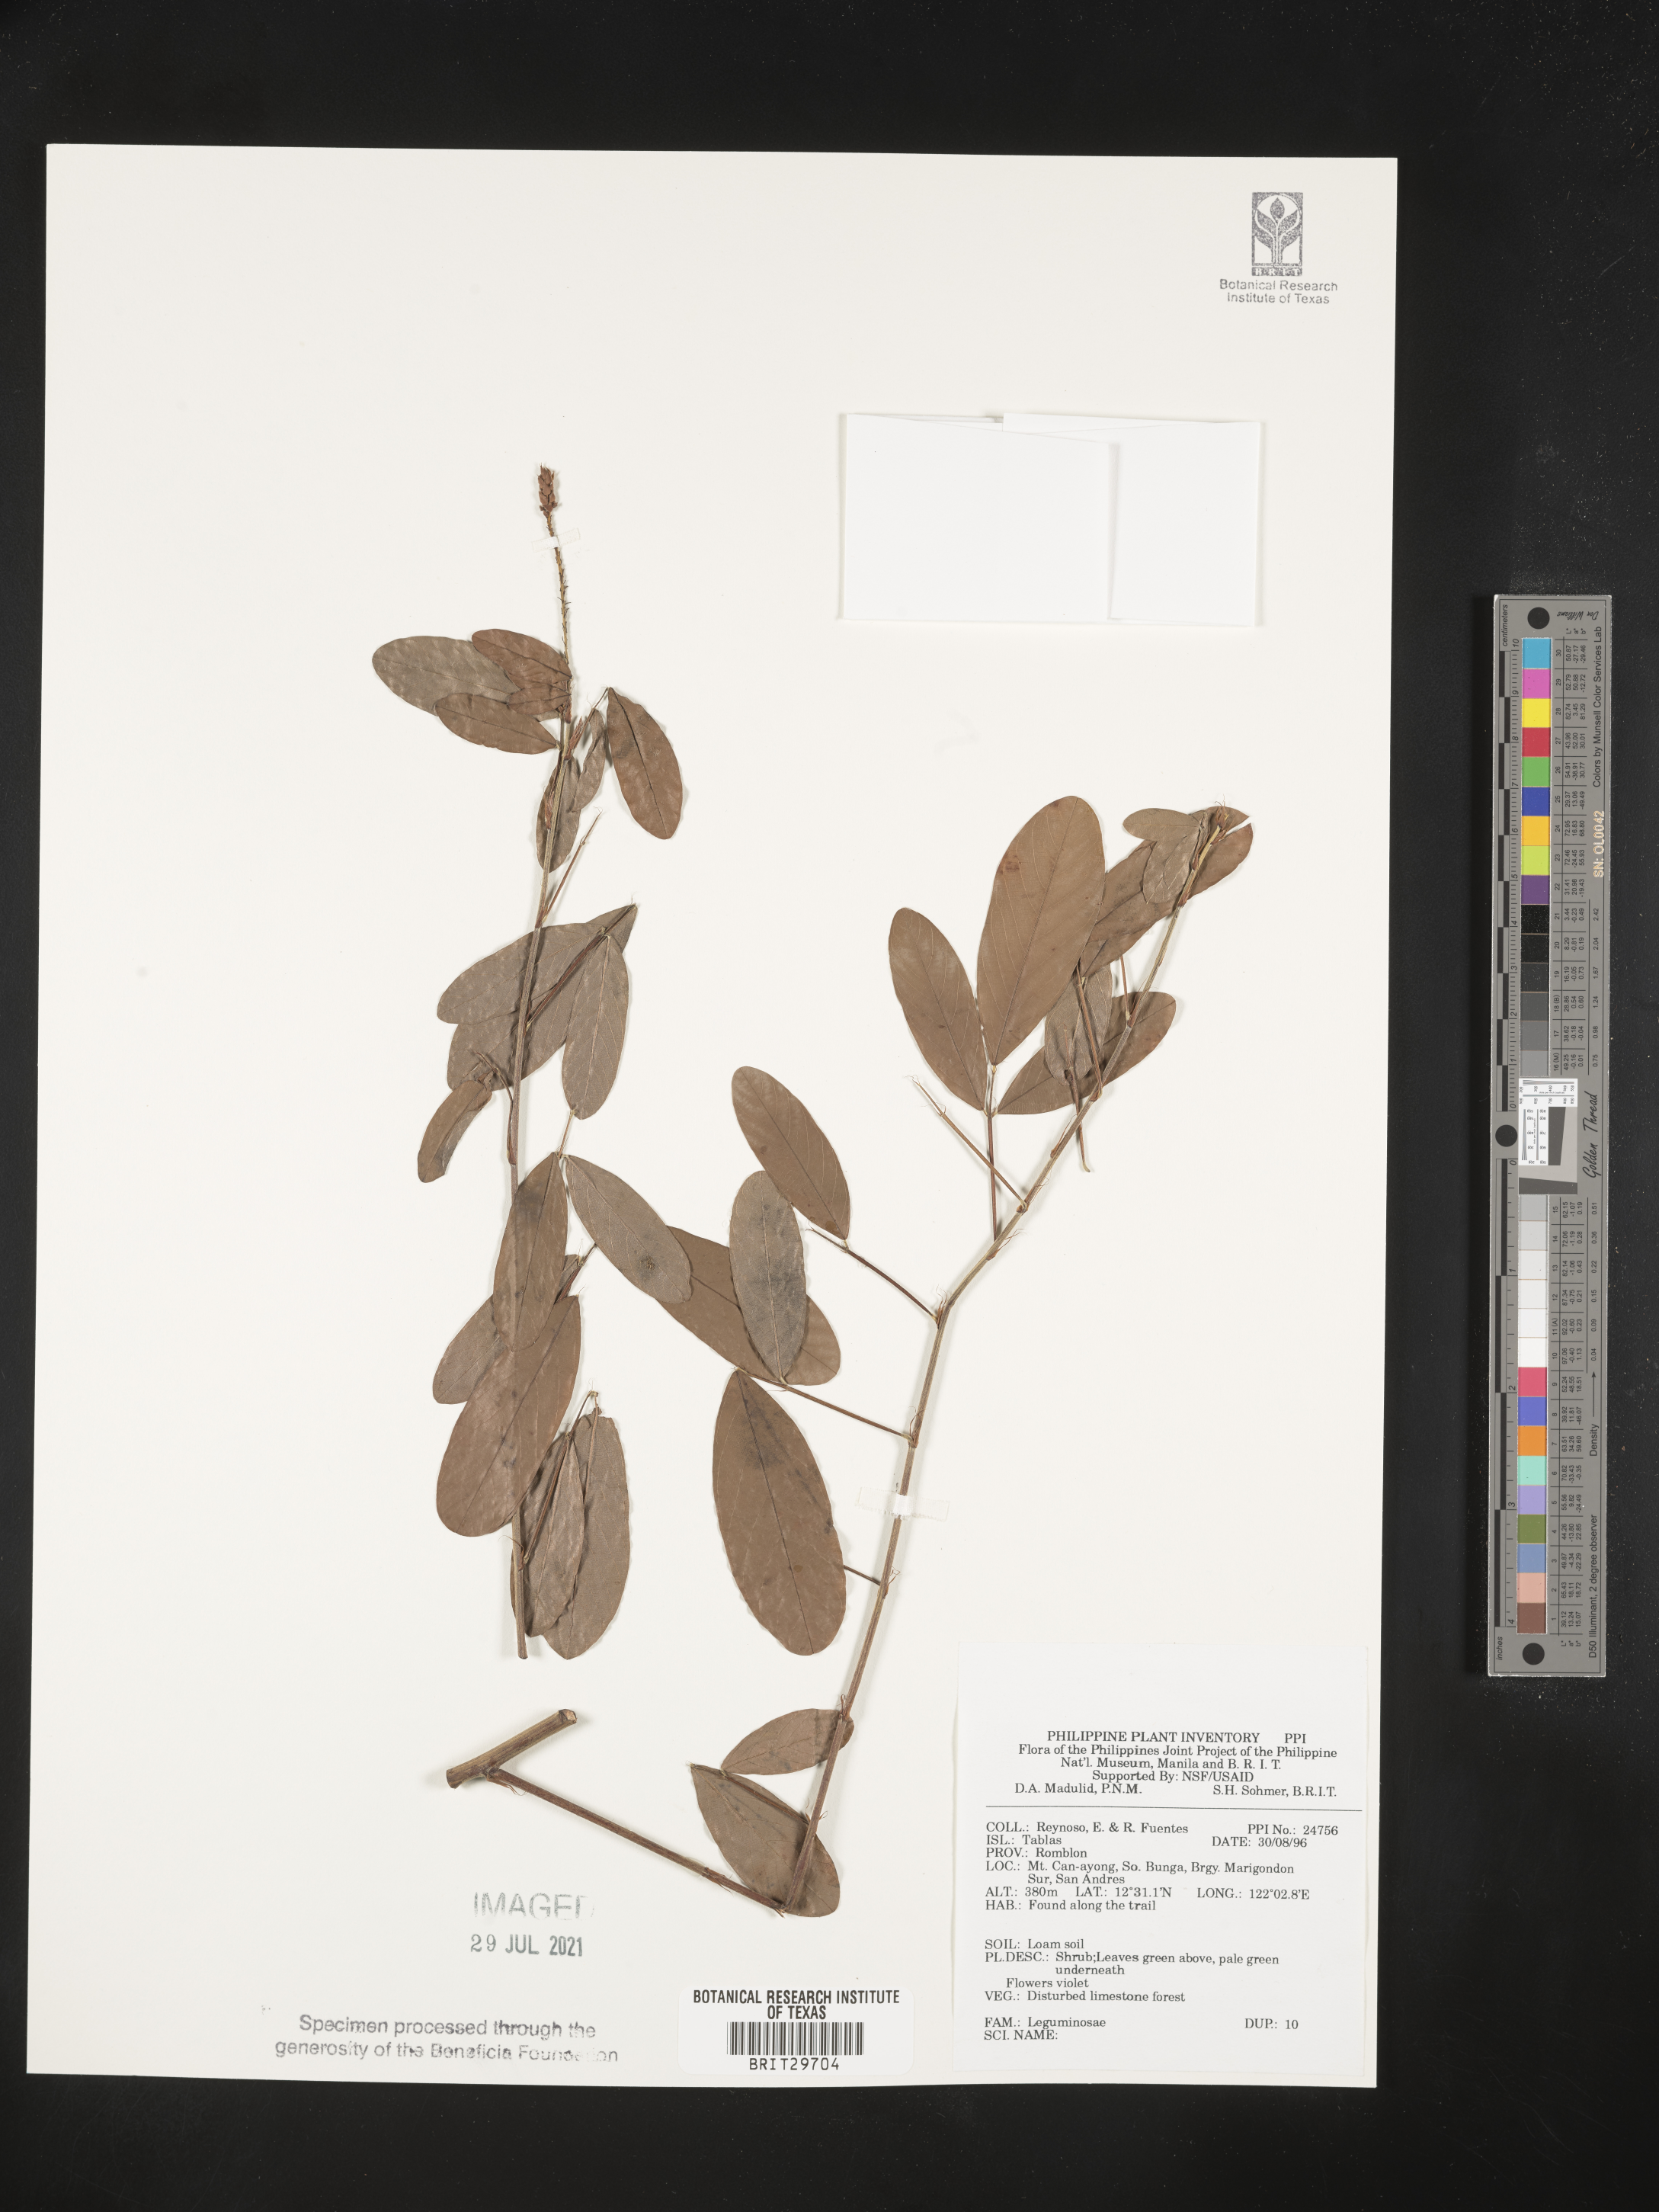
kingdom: Plantae
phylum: Tracheophyta
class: Magnoliopsida
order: Fabales
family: Fabaceae
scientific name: Fabaceae
